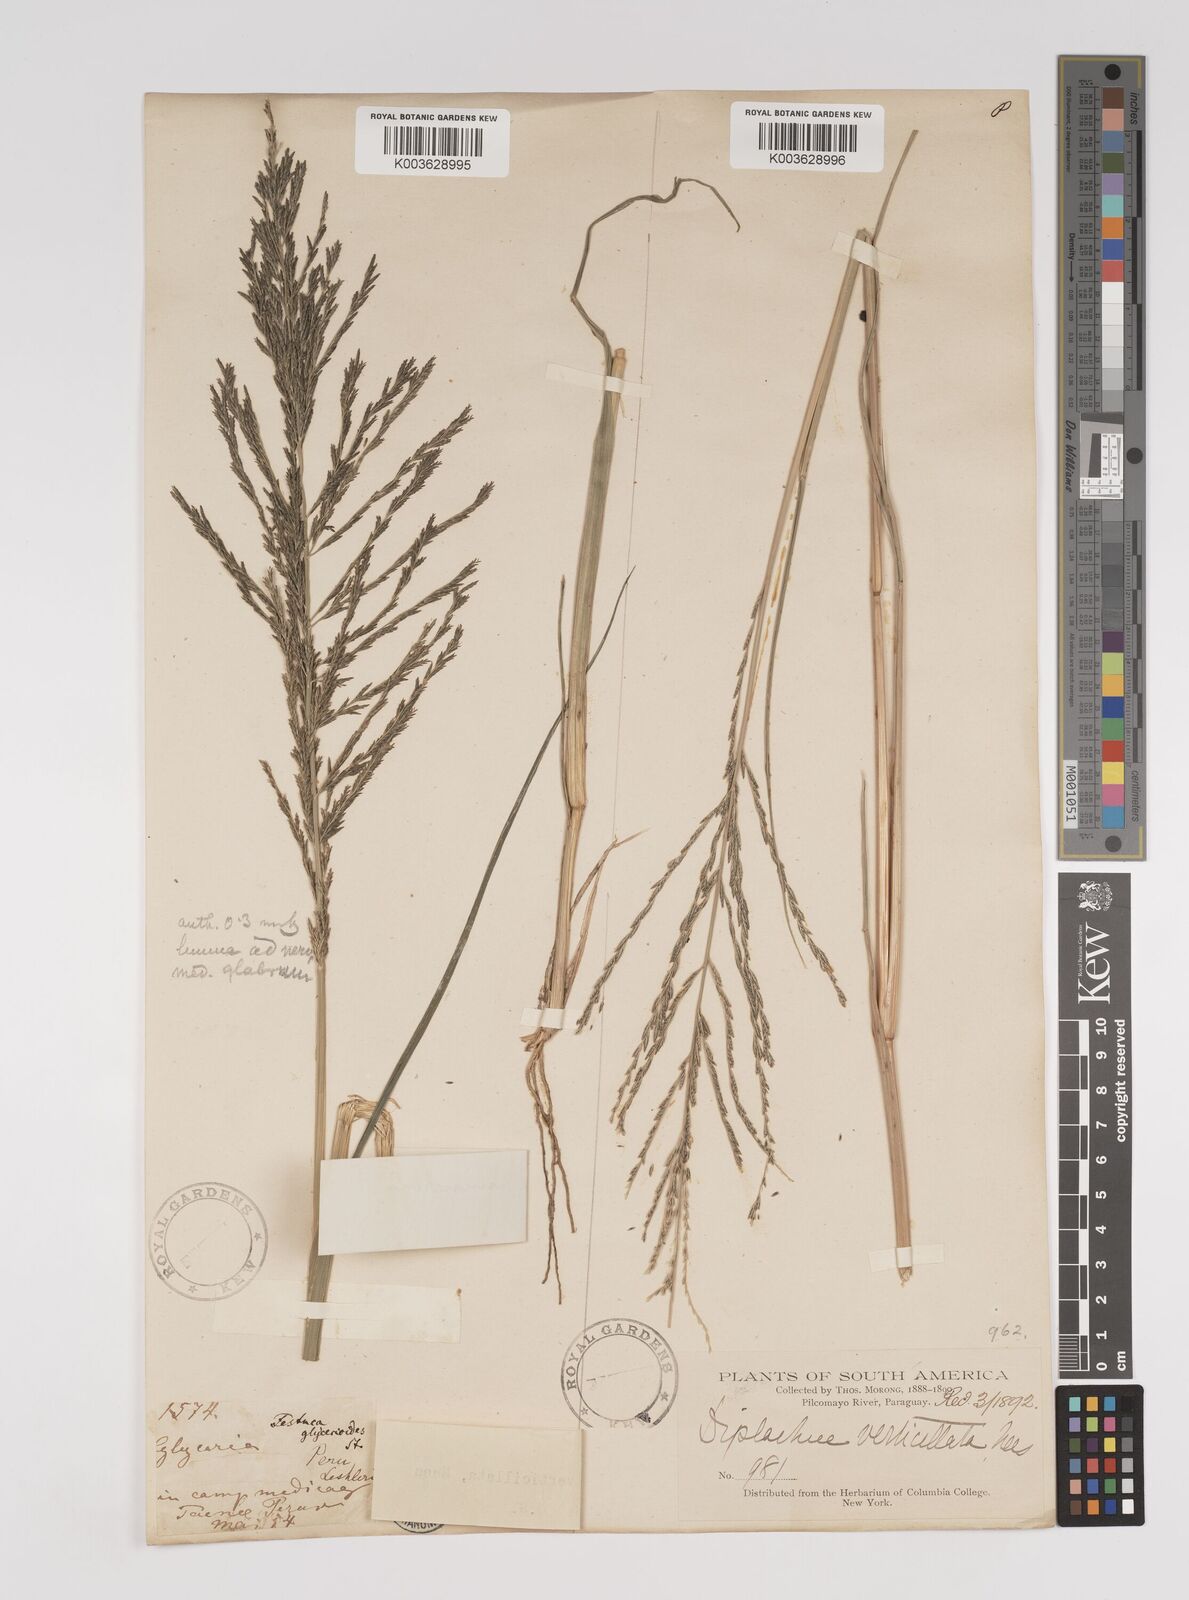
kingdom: Plantae
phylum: Tracheophyta
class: Liliopsida
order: Poales
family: Poaceae
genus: Diplachne
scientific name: Diplachne fusca
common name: Brown beetle grass
